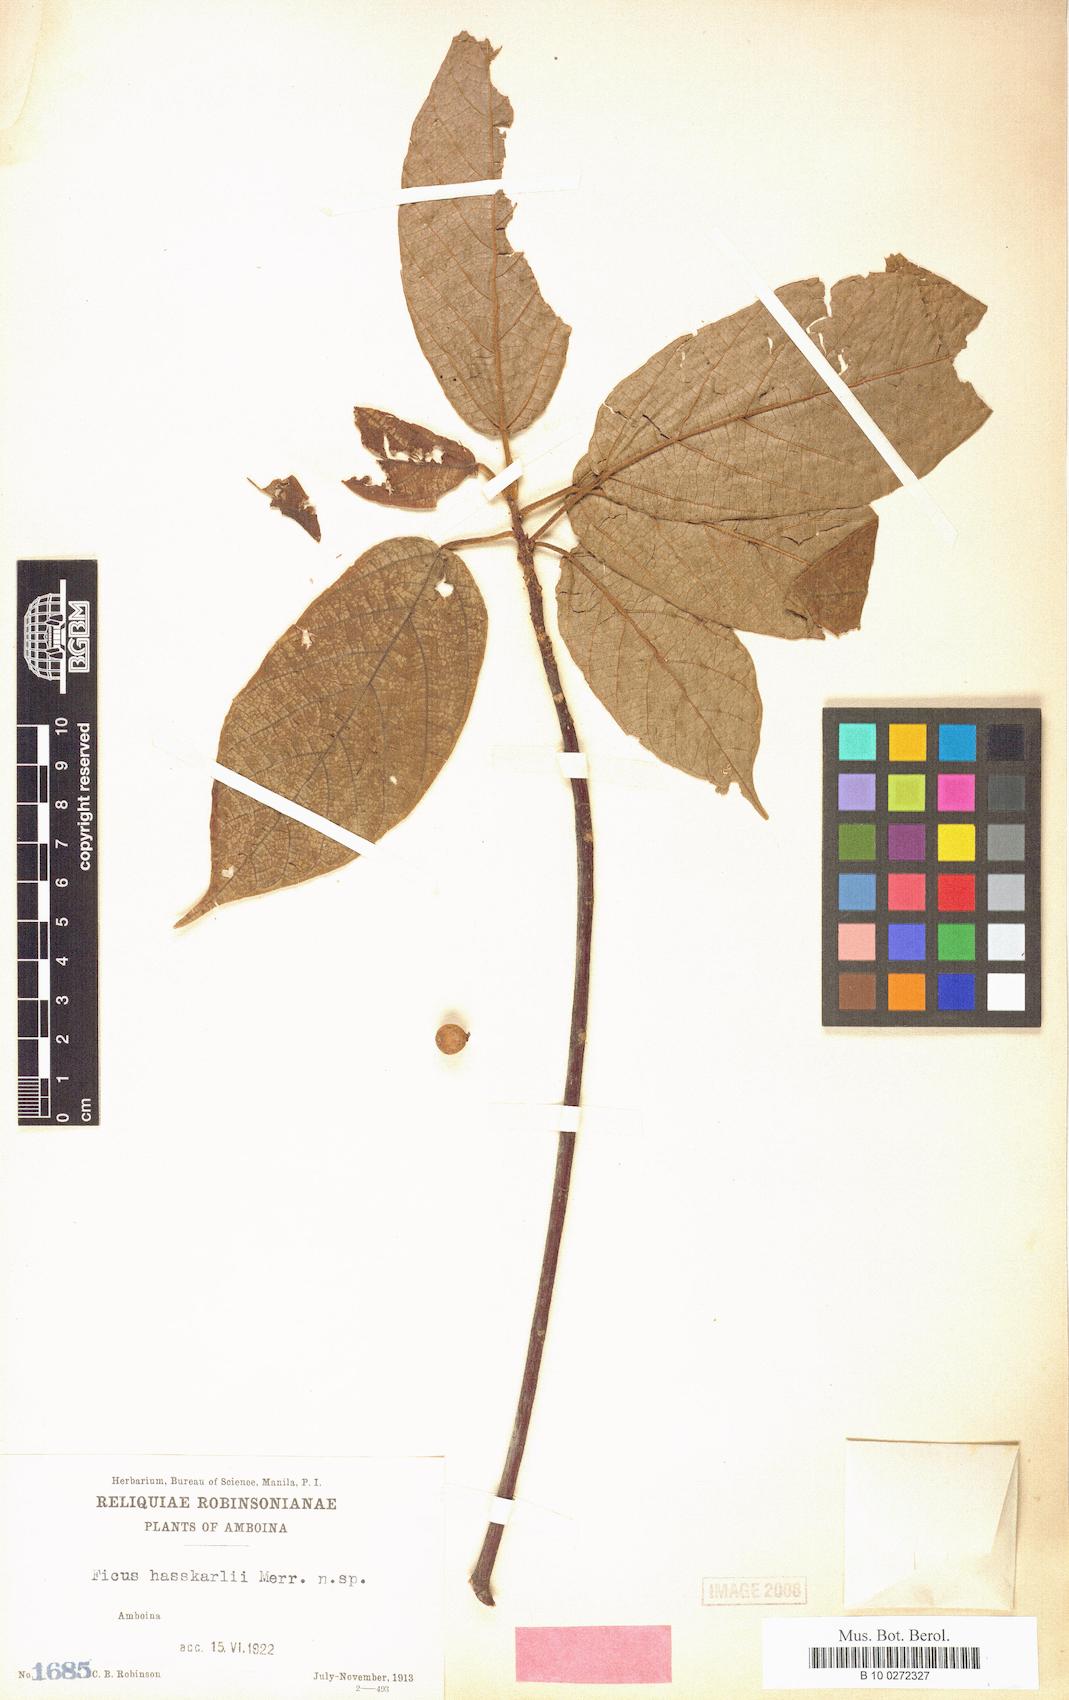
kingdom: Plantae
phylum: Tracheophyta
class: Magnoliopsida
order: Rosales
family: Moraceae
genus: Ficus
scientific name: Ficus glandulifera
